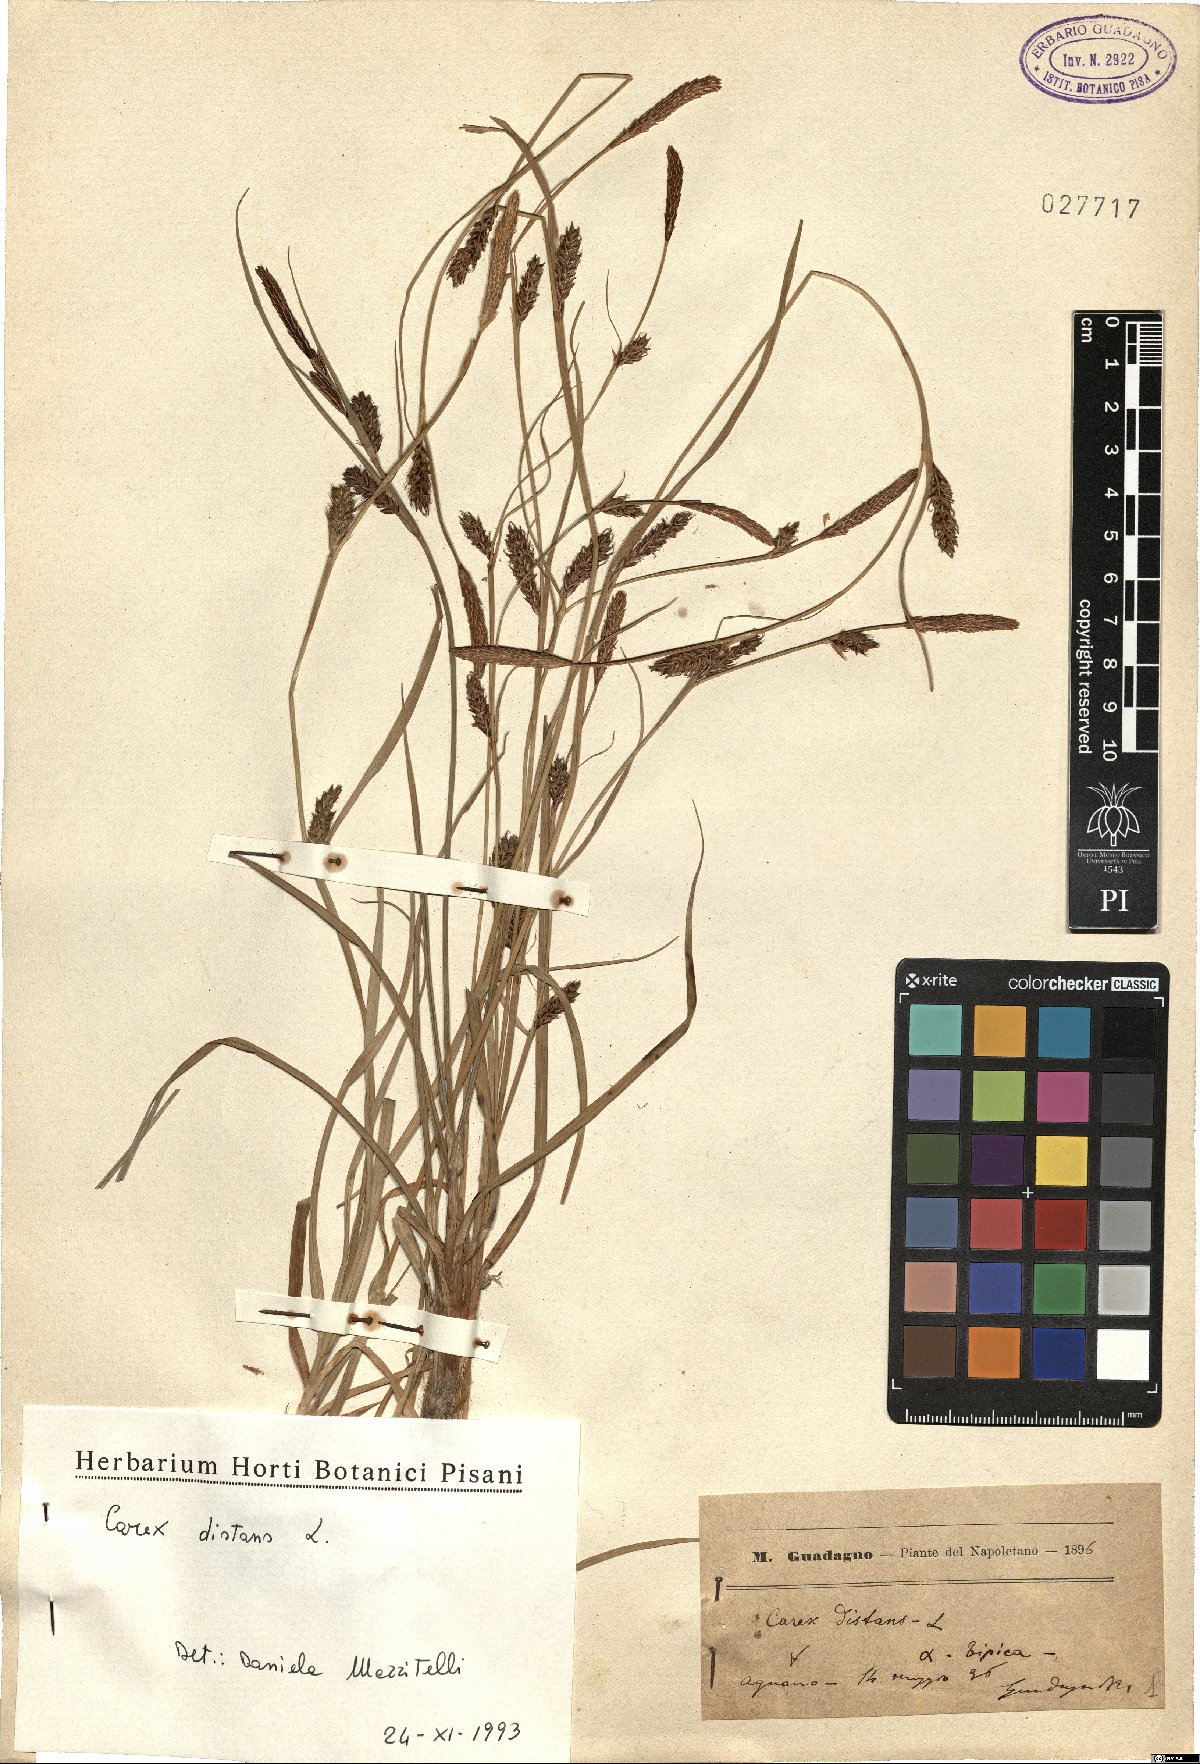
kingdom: Plantae
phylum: Tracheophyta
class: Liliopsida
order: Poales
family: Cyperaceae
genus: Carex
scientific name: Carex distans
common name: Distant sedge
